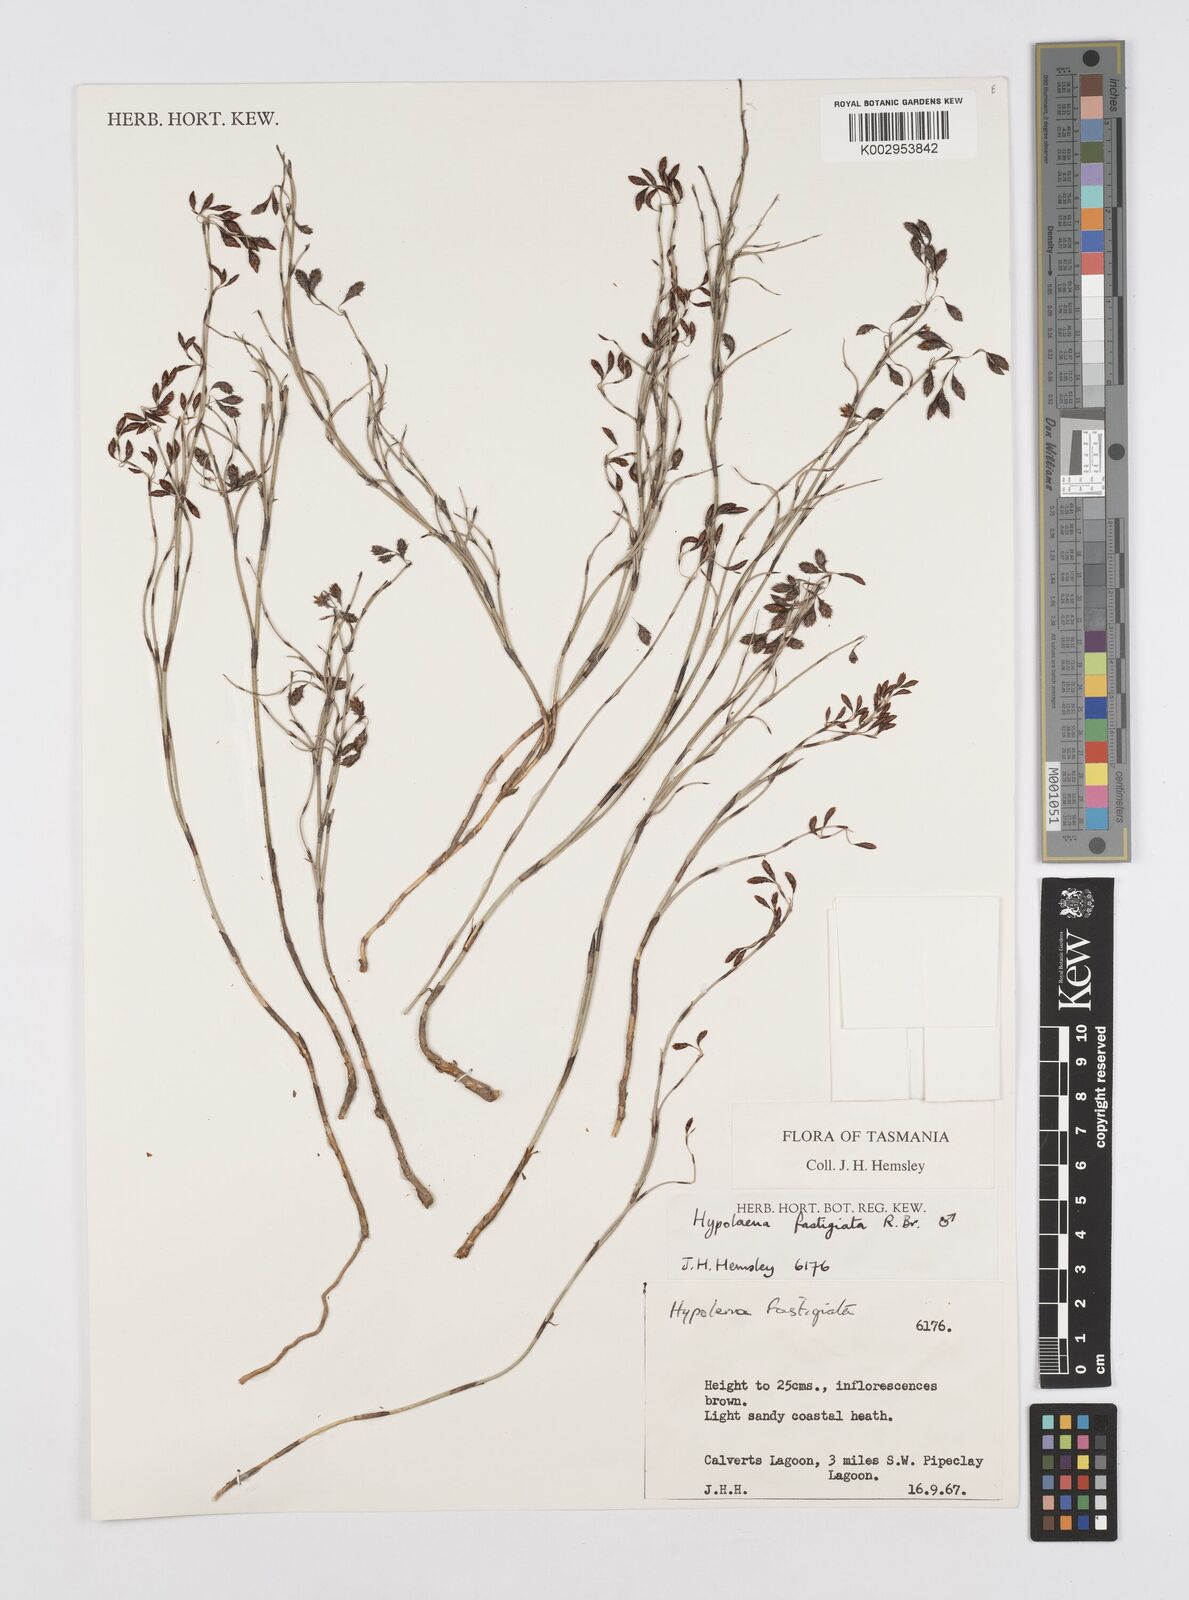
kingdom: Plantae
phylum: Tracheophyta
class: Liliopsida
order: Poales
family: Restionaceae
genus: Hypolaena
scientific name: Hypolaena fastigiata
